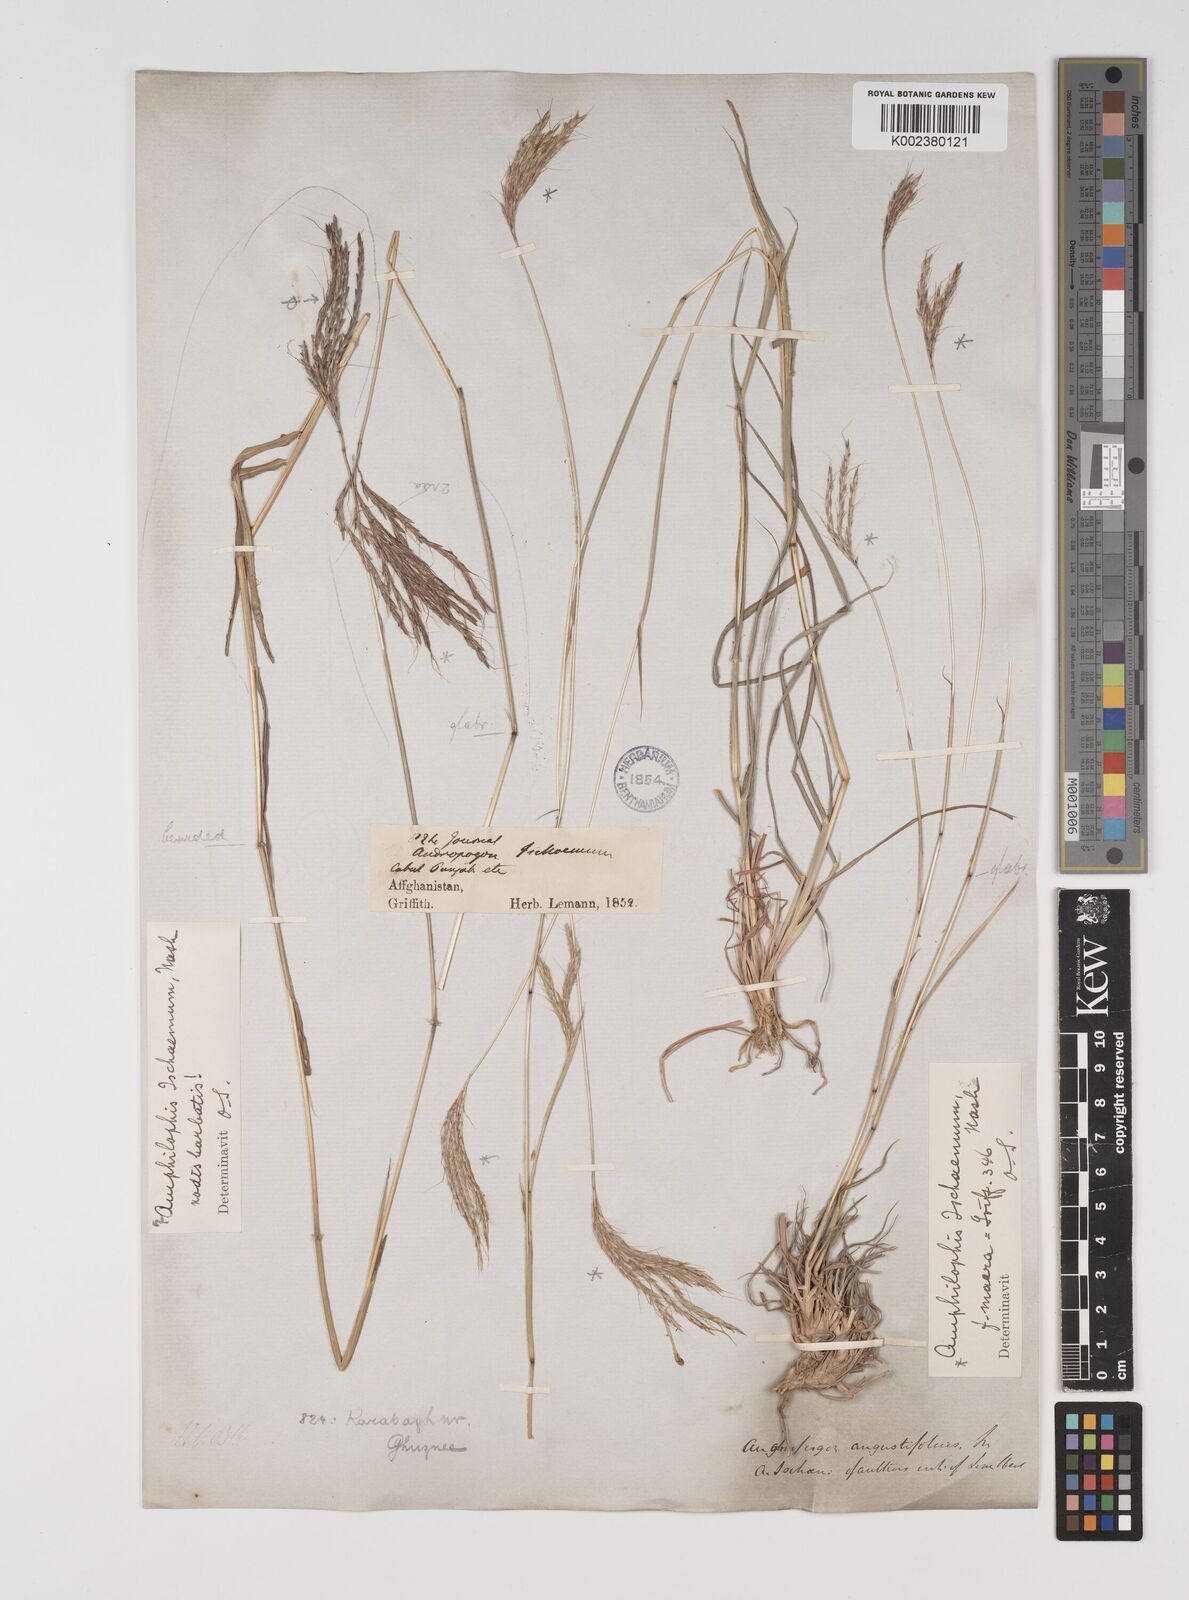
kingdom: Plantae
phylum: Tracheophyta
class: Liliopsida
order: Poales
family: Poaceae
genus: Bothriochloa
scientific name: Bothriochloa ischaemum
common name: Yellow bluestem
